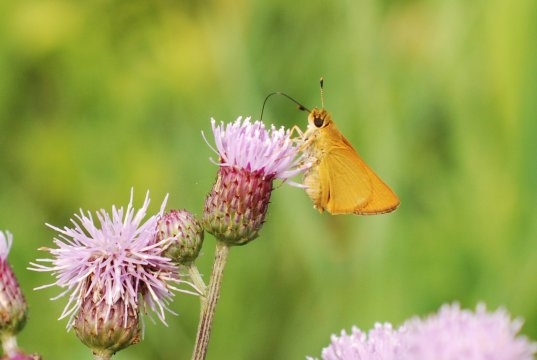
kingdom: Animalia
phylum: Arthropoda
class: Insecta
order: Lepidoptera
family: Hesperiidae
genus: Atrytone
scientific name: Atrytone delaware
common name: Delaware Skipper
